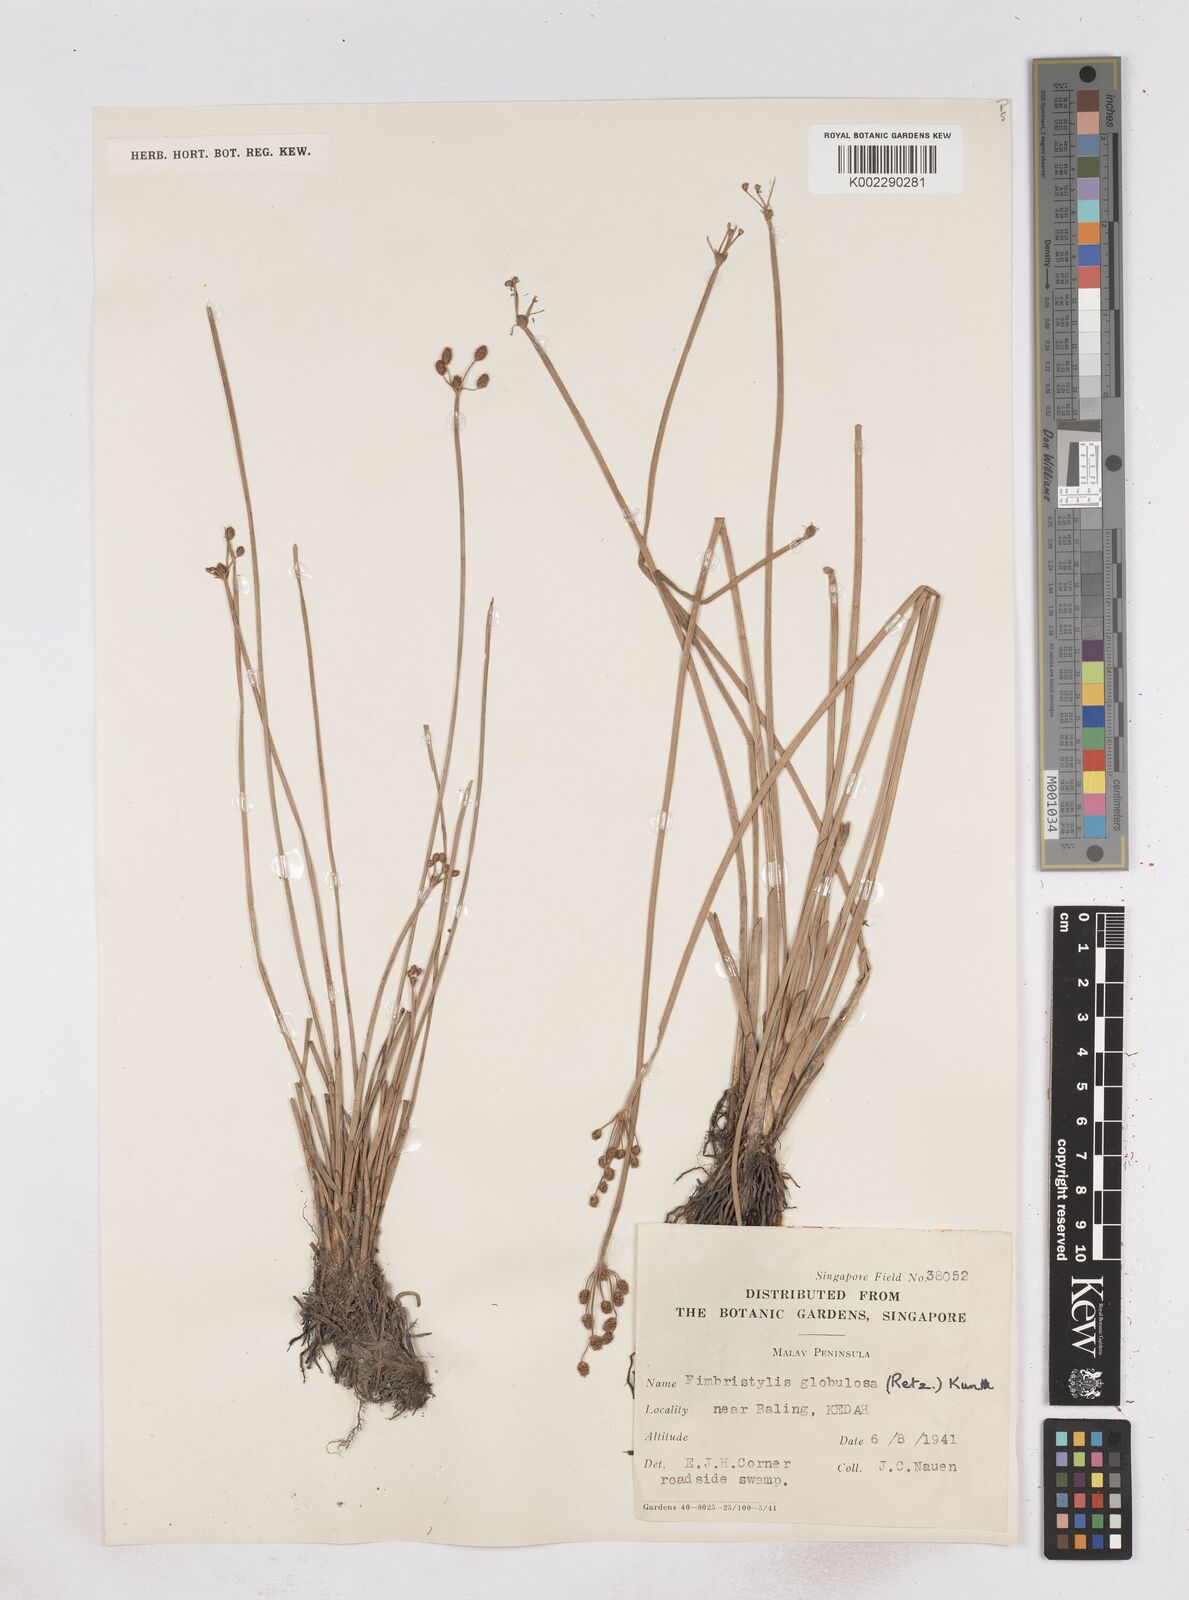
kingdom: Plantae
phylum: Tracheophyta
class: Liliopsida
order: Poales
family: Cyperaceae
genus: Fimbristylis
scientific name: Fimbristylis umbellaris
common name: Globular fimbristylis
